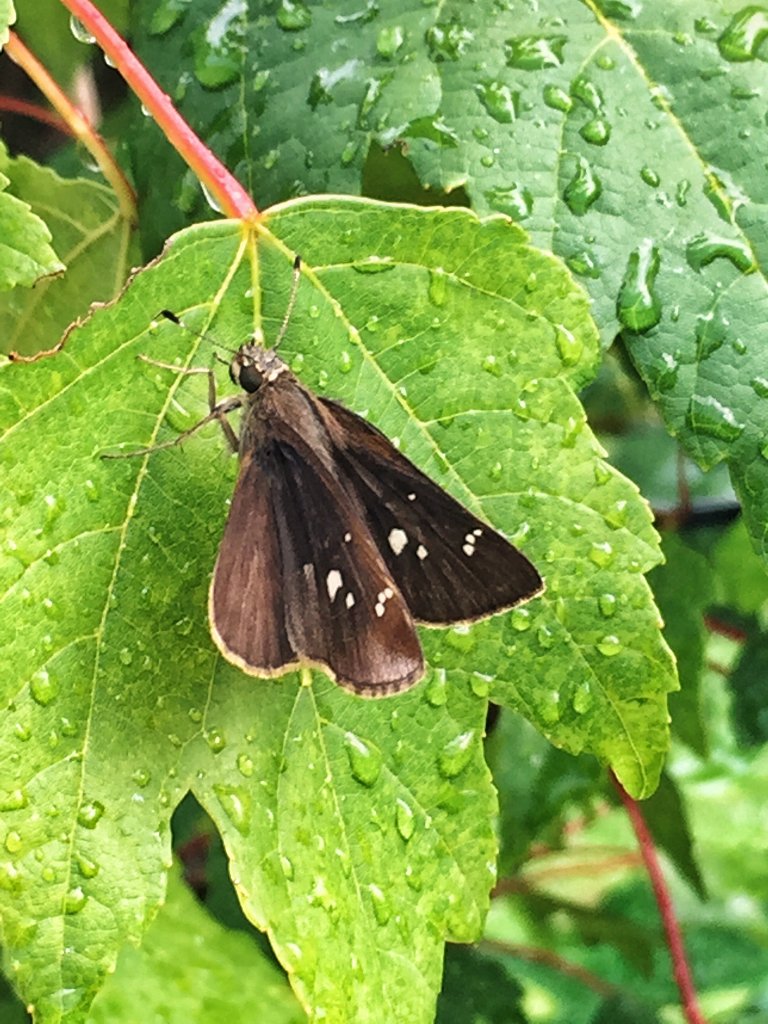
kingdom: Animalia
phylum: Arthropoda
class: Insecta
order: Lepidoptera
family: Hesperiidae
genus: Lerema
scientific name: Lerema accius
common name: Clouded Skipper
